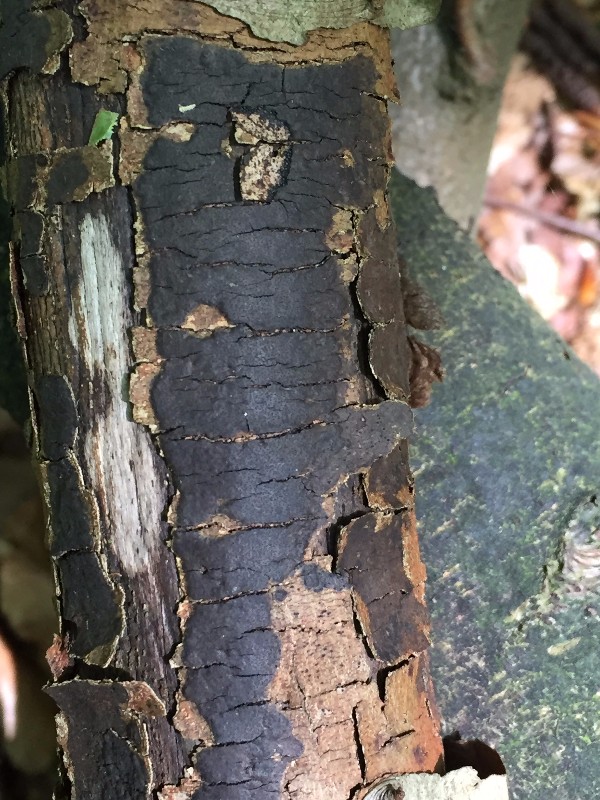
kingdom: Fungi
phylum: Ascomycota
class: Sordariomycetes
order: Xylariales
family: Diatrypaceae
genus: Diatrype
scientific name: Diatrype decorticata
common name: barksprænger-kulskorpe
